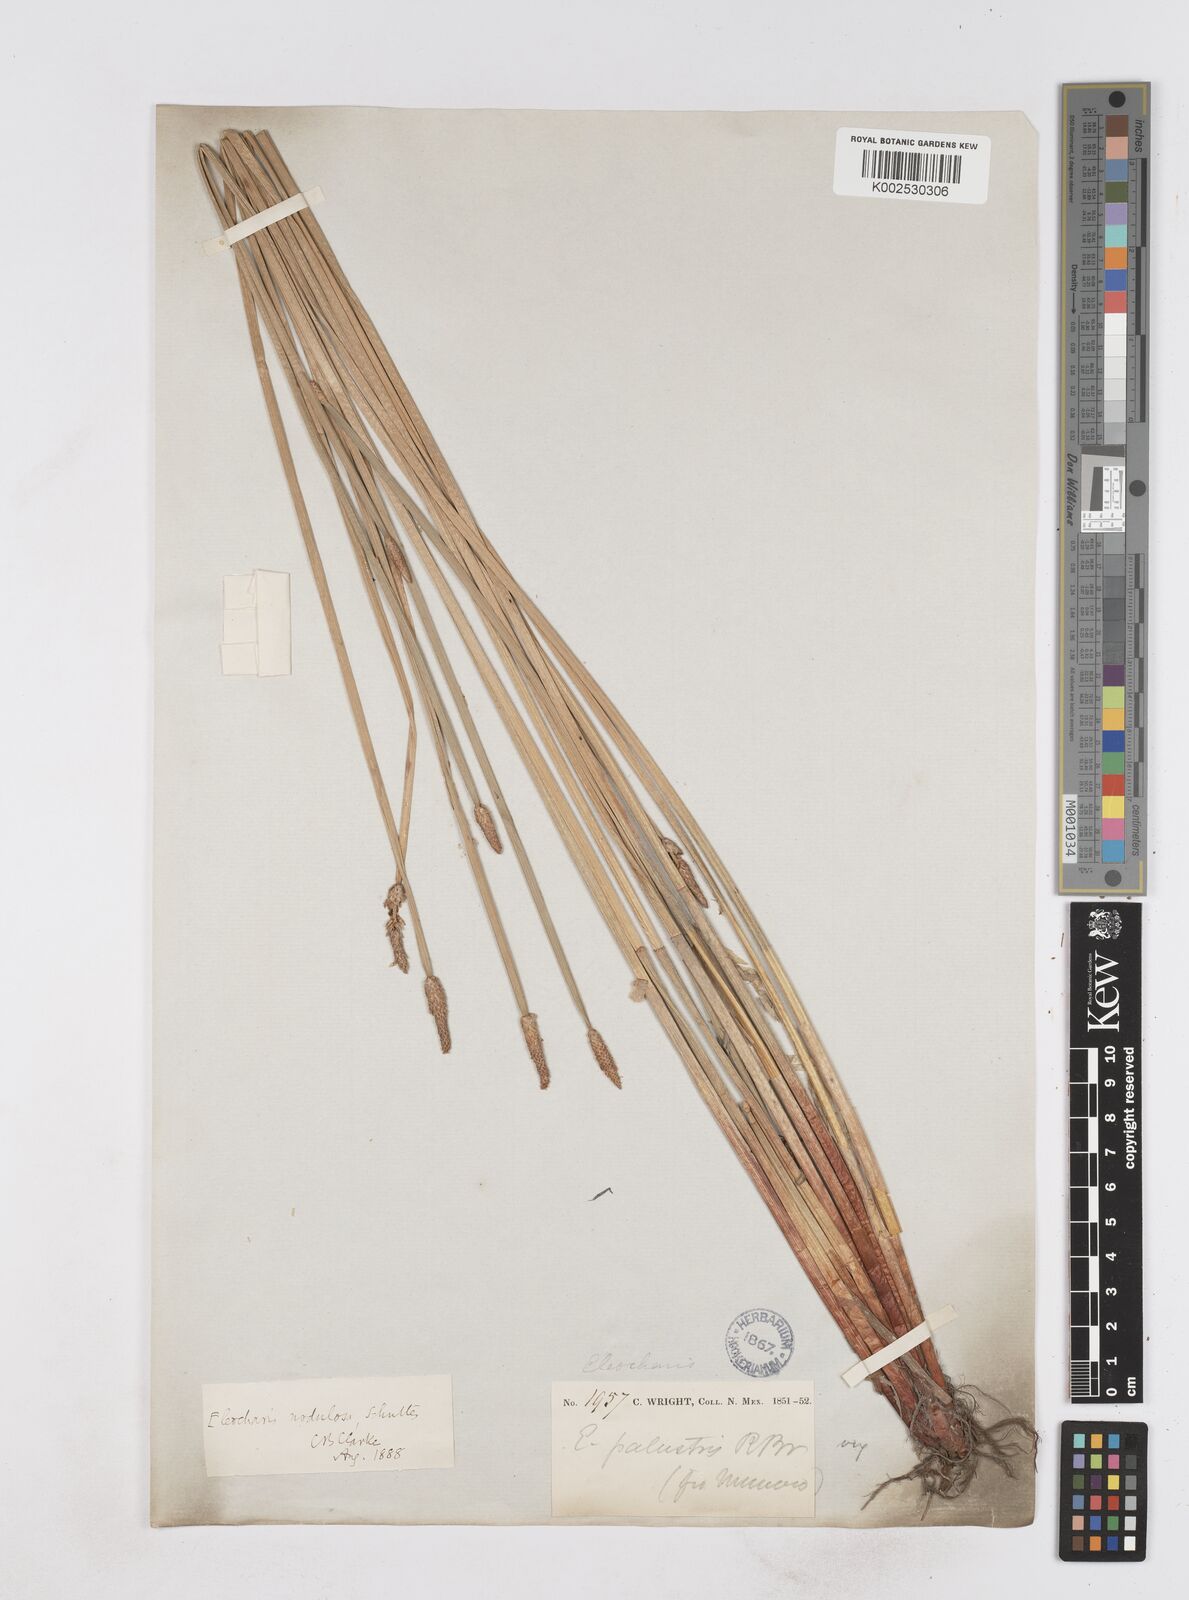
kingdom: Plantae
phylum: Tracheophyta
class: Liliopsida
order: Poales
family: Cyperaceae
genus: Eleocharis
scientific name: Eleocharis montana
